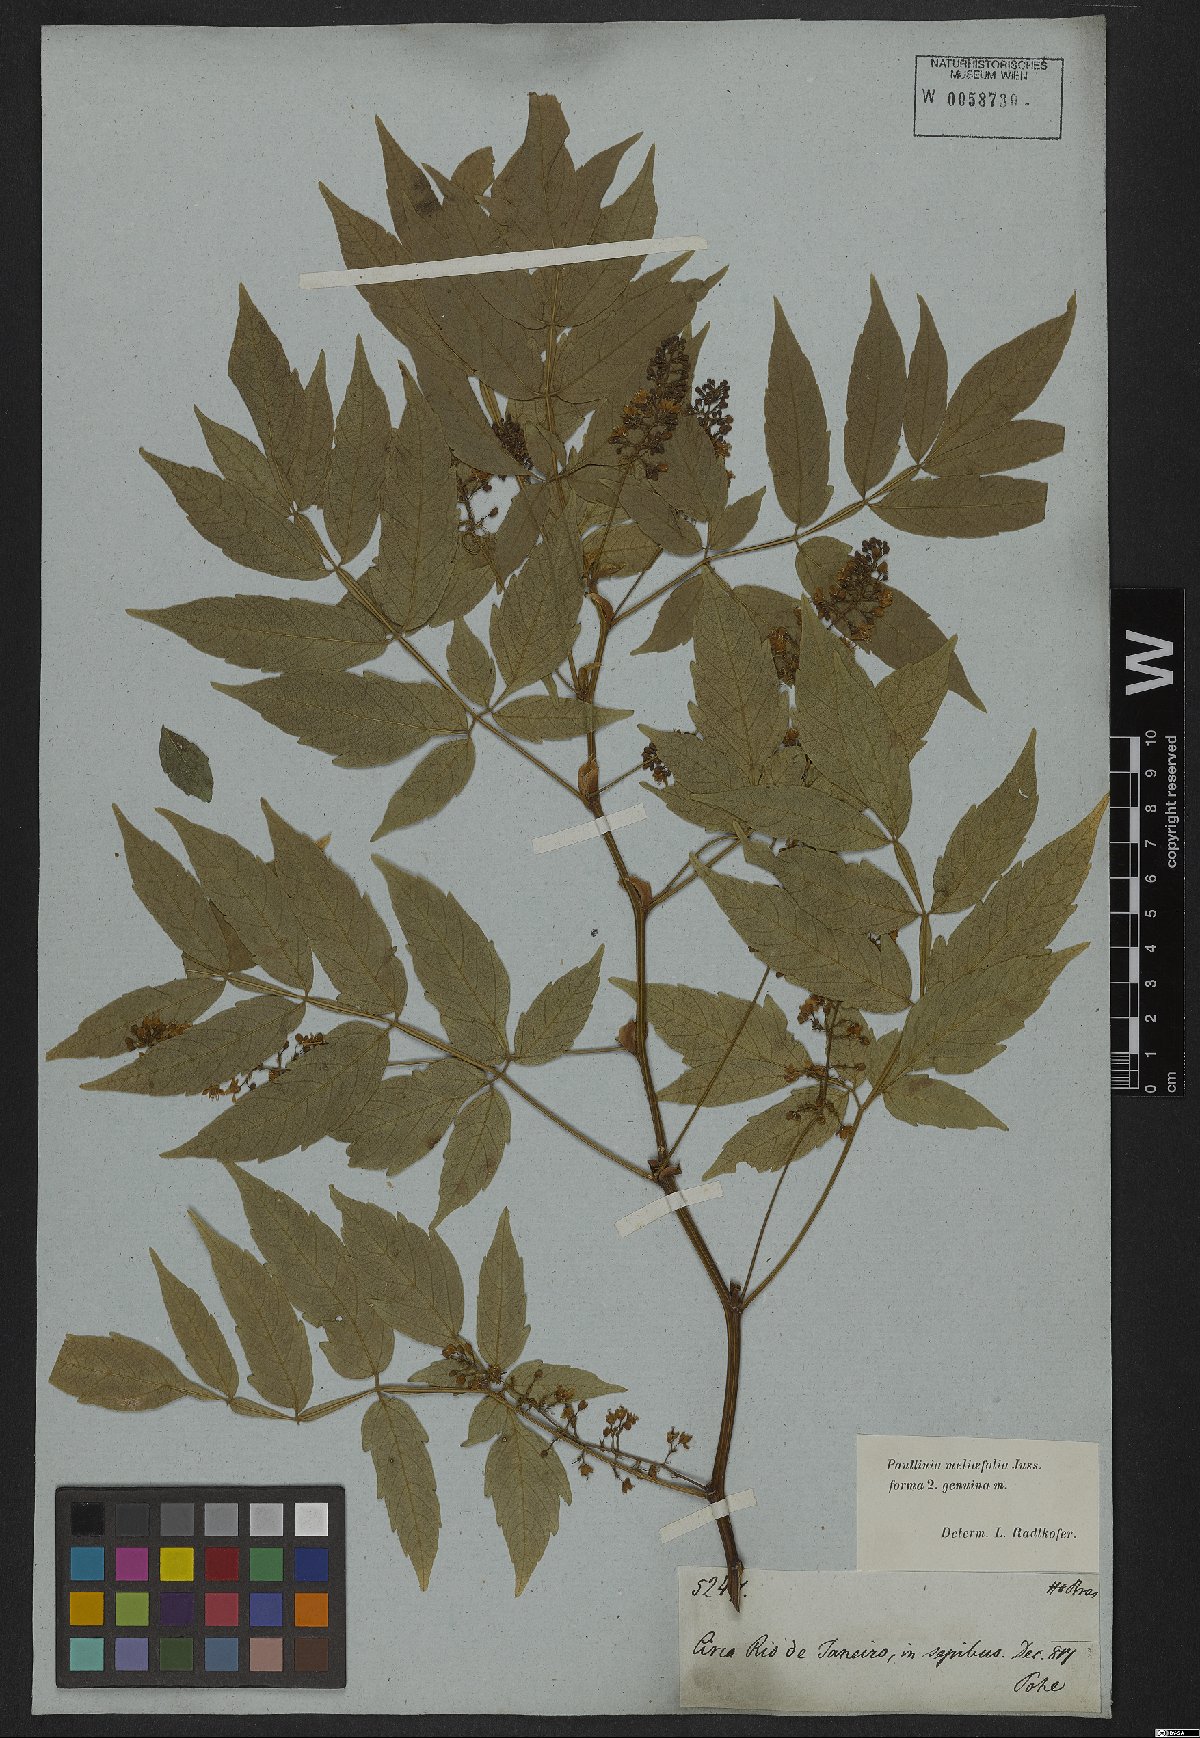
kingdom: Plantae
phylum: Tracheophyta
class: Magnoliopsida
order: Sapindales
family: Sapindaceae
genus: Paullinia
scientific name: Paullinia meliifolia
